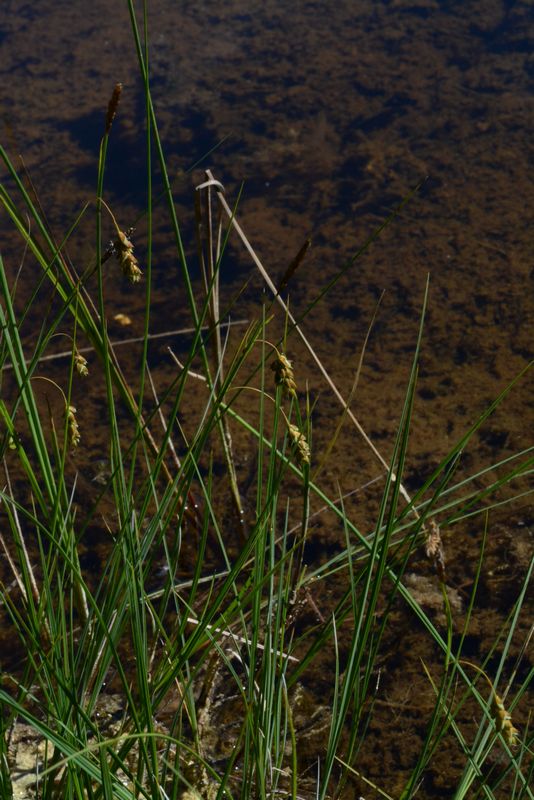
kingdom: Plantae
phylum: Tracheophyta
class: Liliopsida
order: Poales
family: Cyperaceae
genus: Carex
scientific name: Carex limosa
